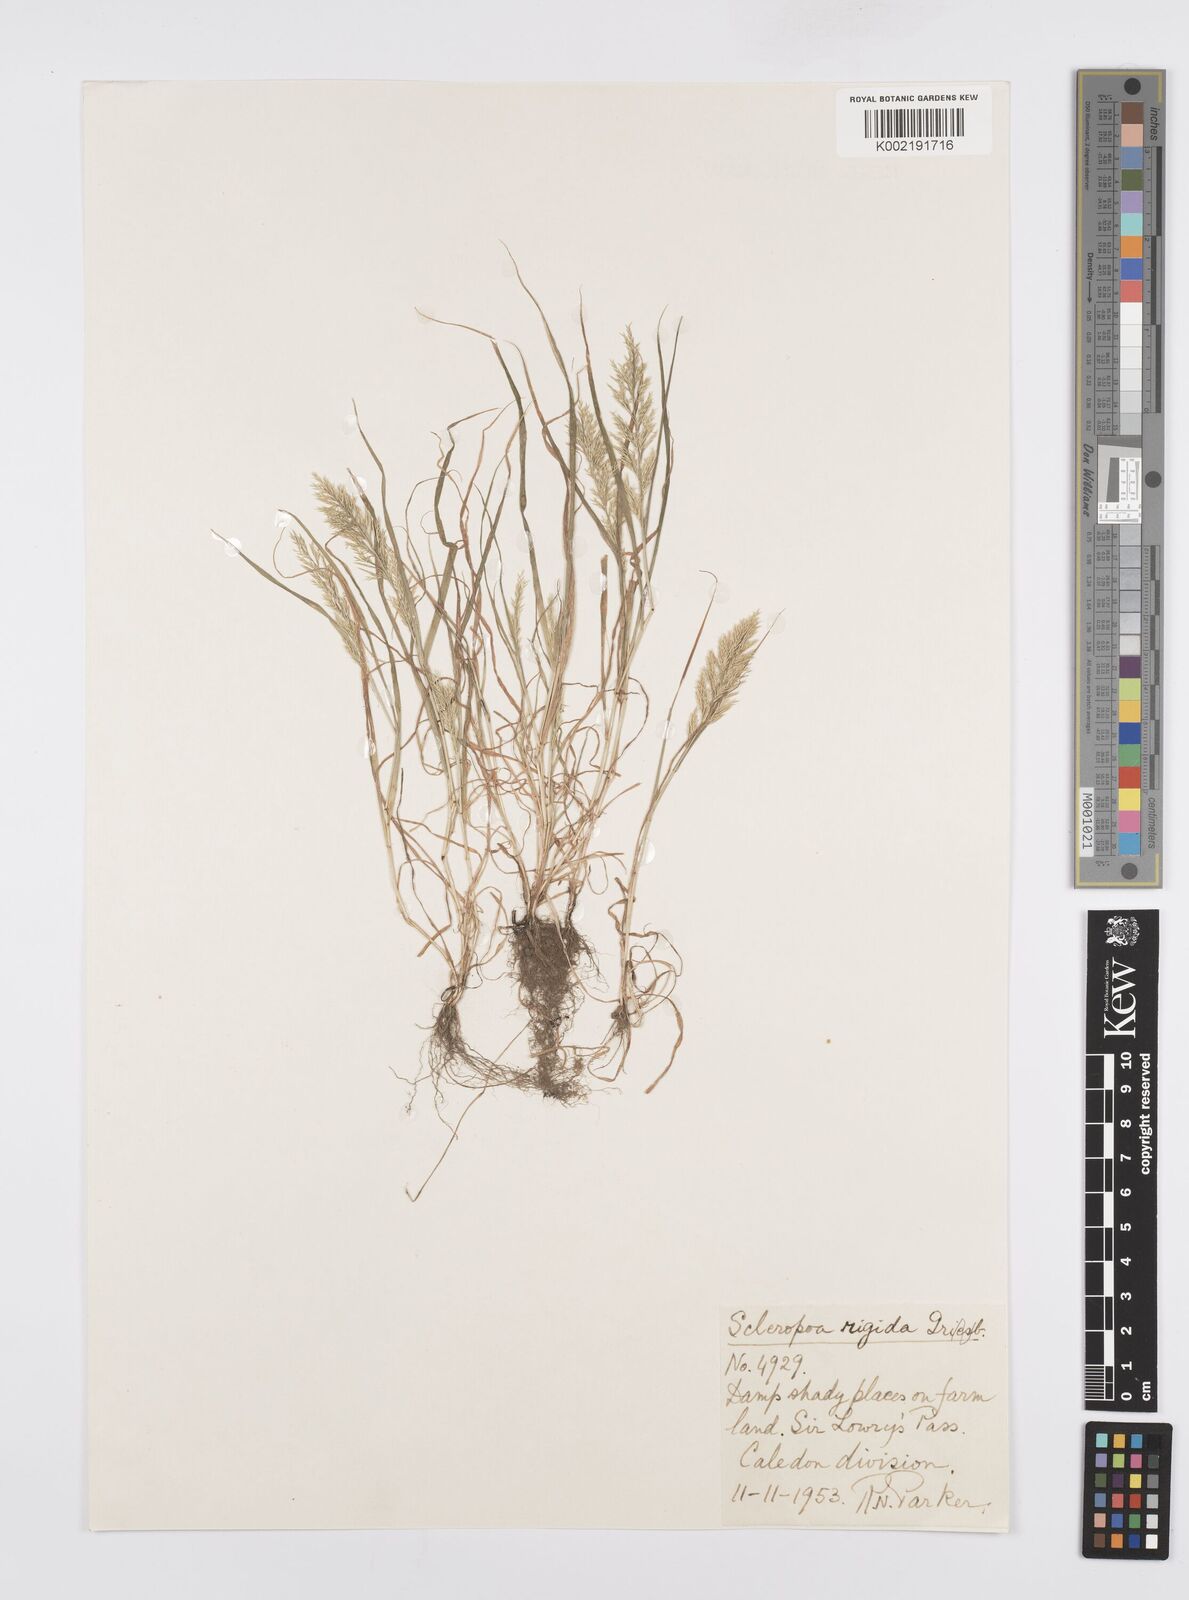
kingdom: Plantae
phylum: Tracheophyta
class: Liliopsida
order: Poales
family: Poaceae
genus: Catapodium
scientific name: Catapodium rigidum
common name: Fern-grass
